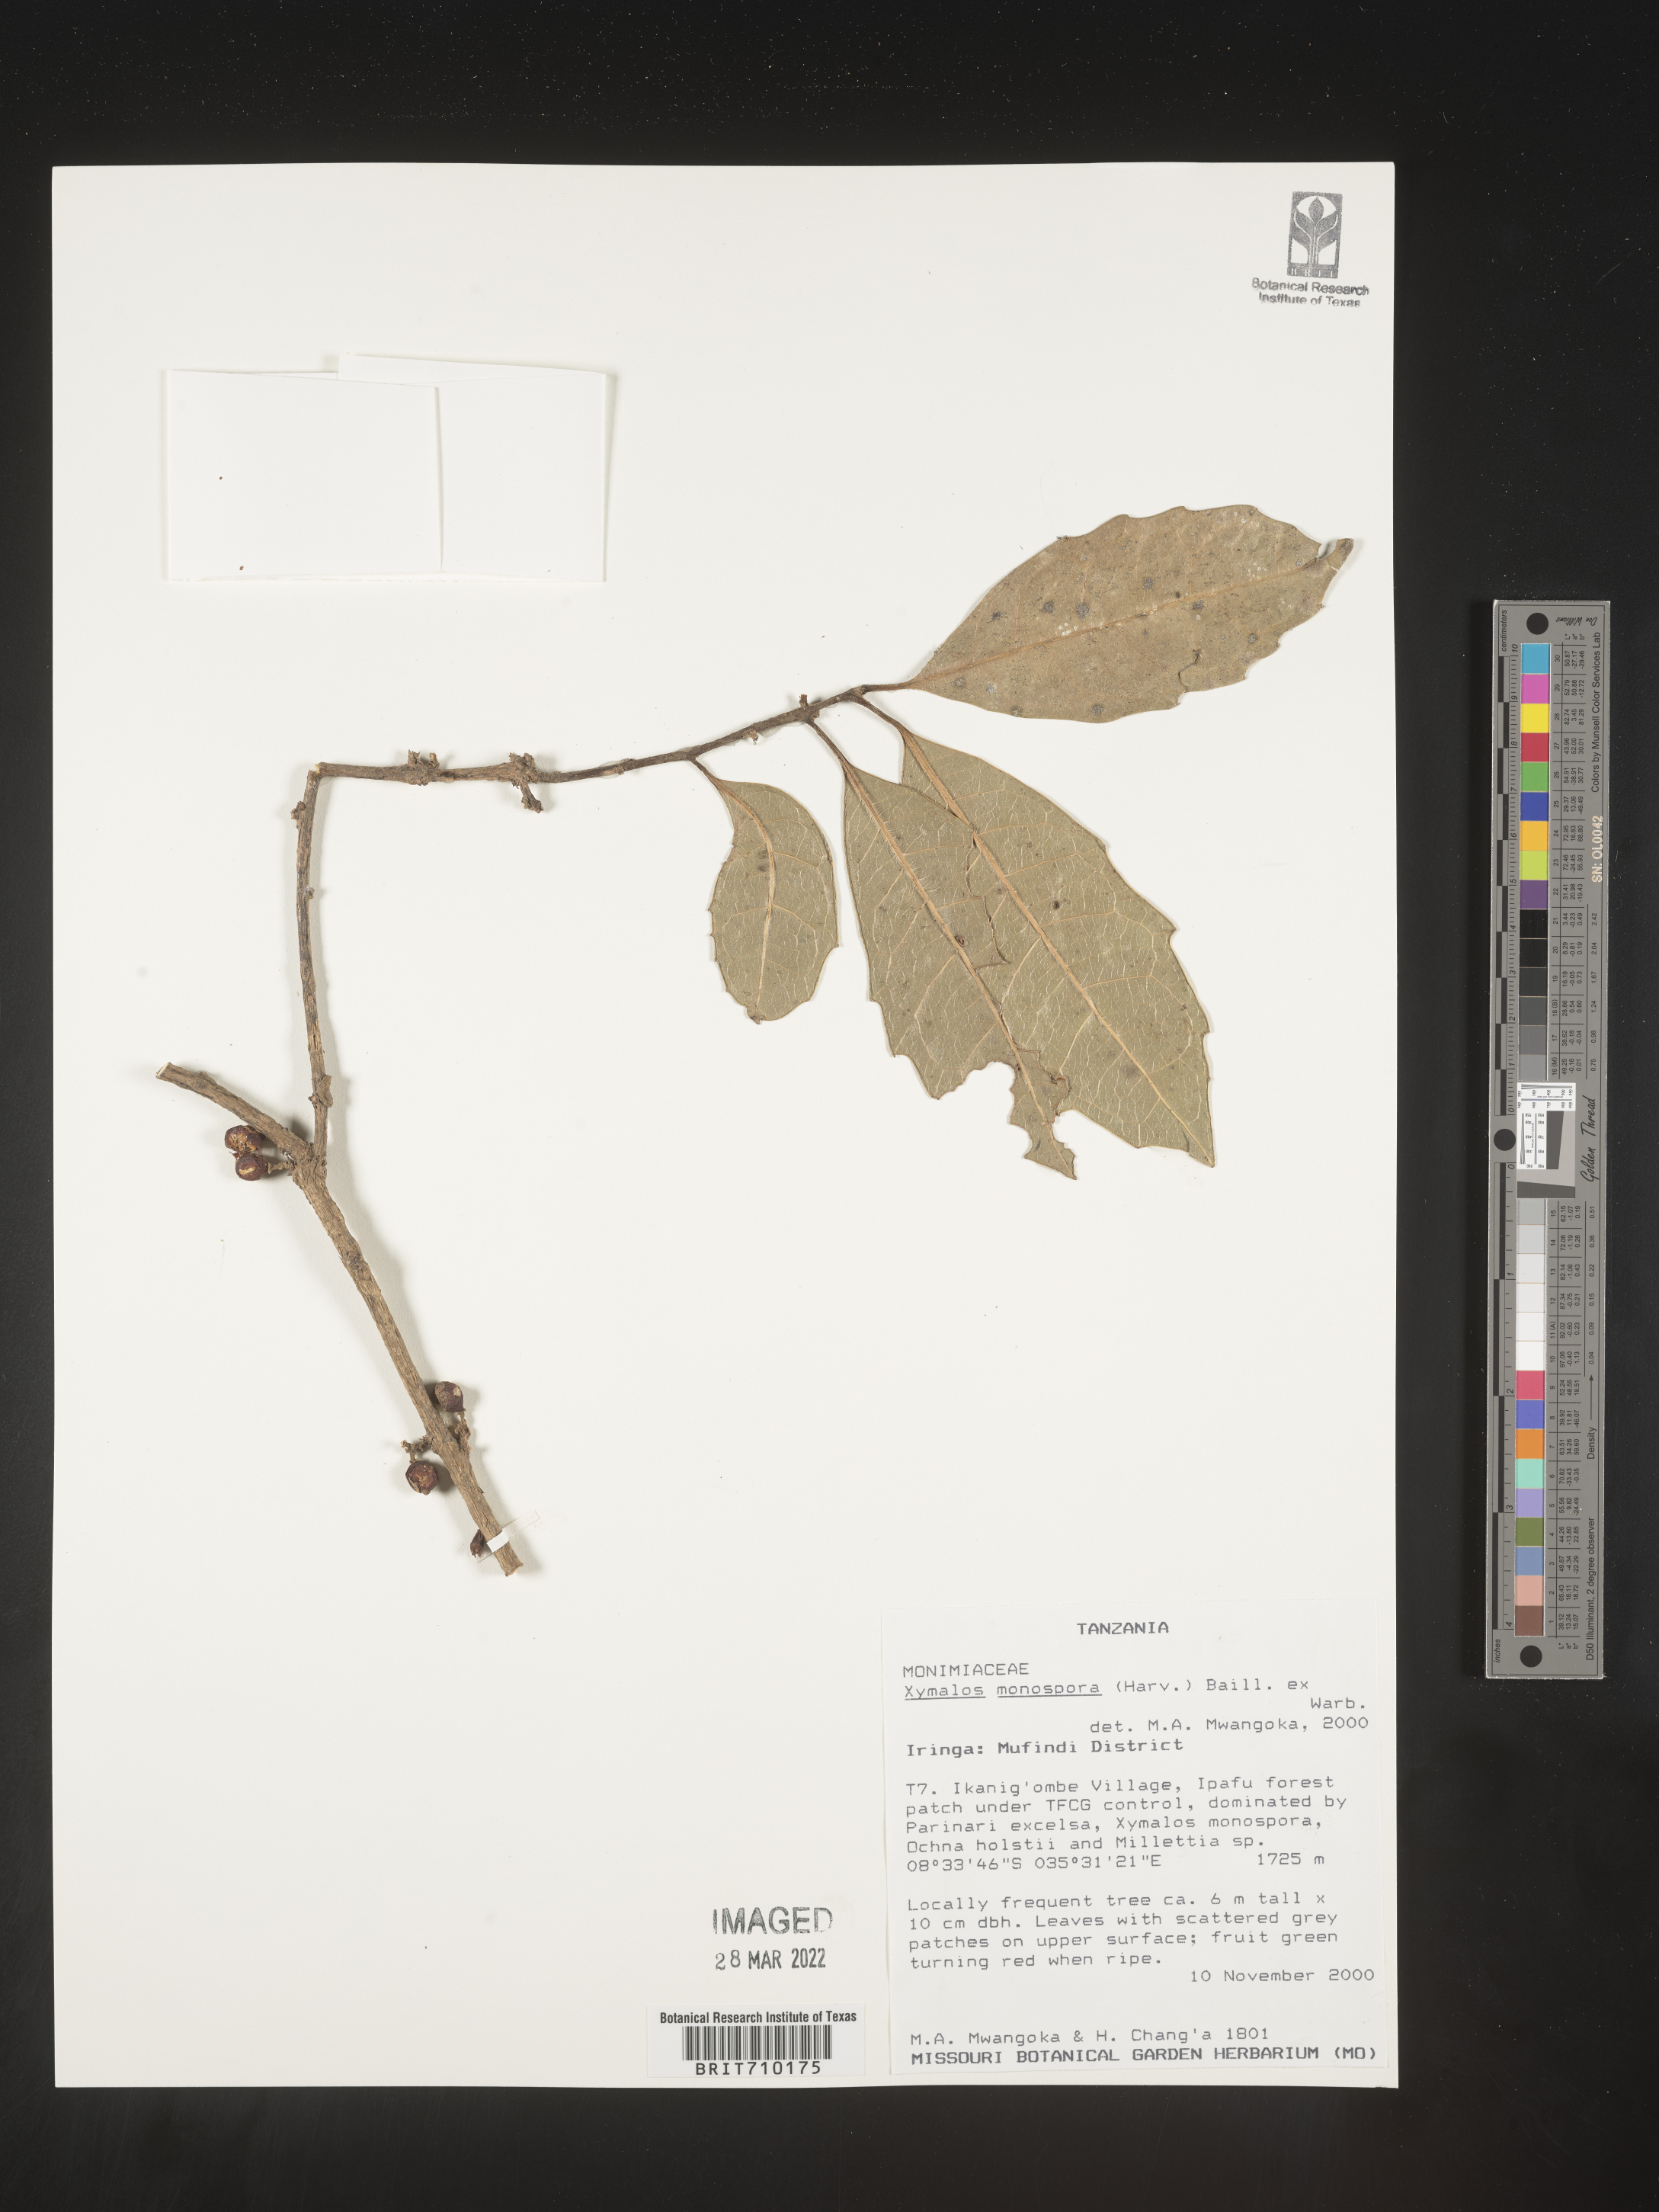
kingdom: Plantae
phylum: Tracheophyta
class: Magnoliopsida
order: Laurales
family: Monimiaceae
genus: Xymalos
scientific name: Xymalos
